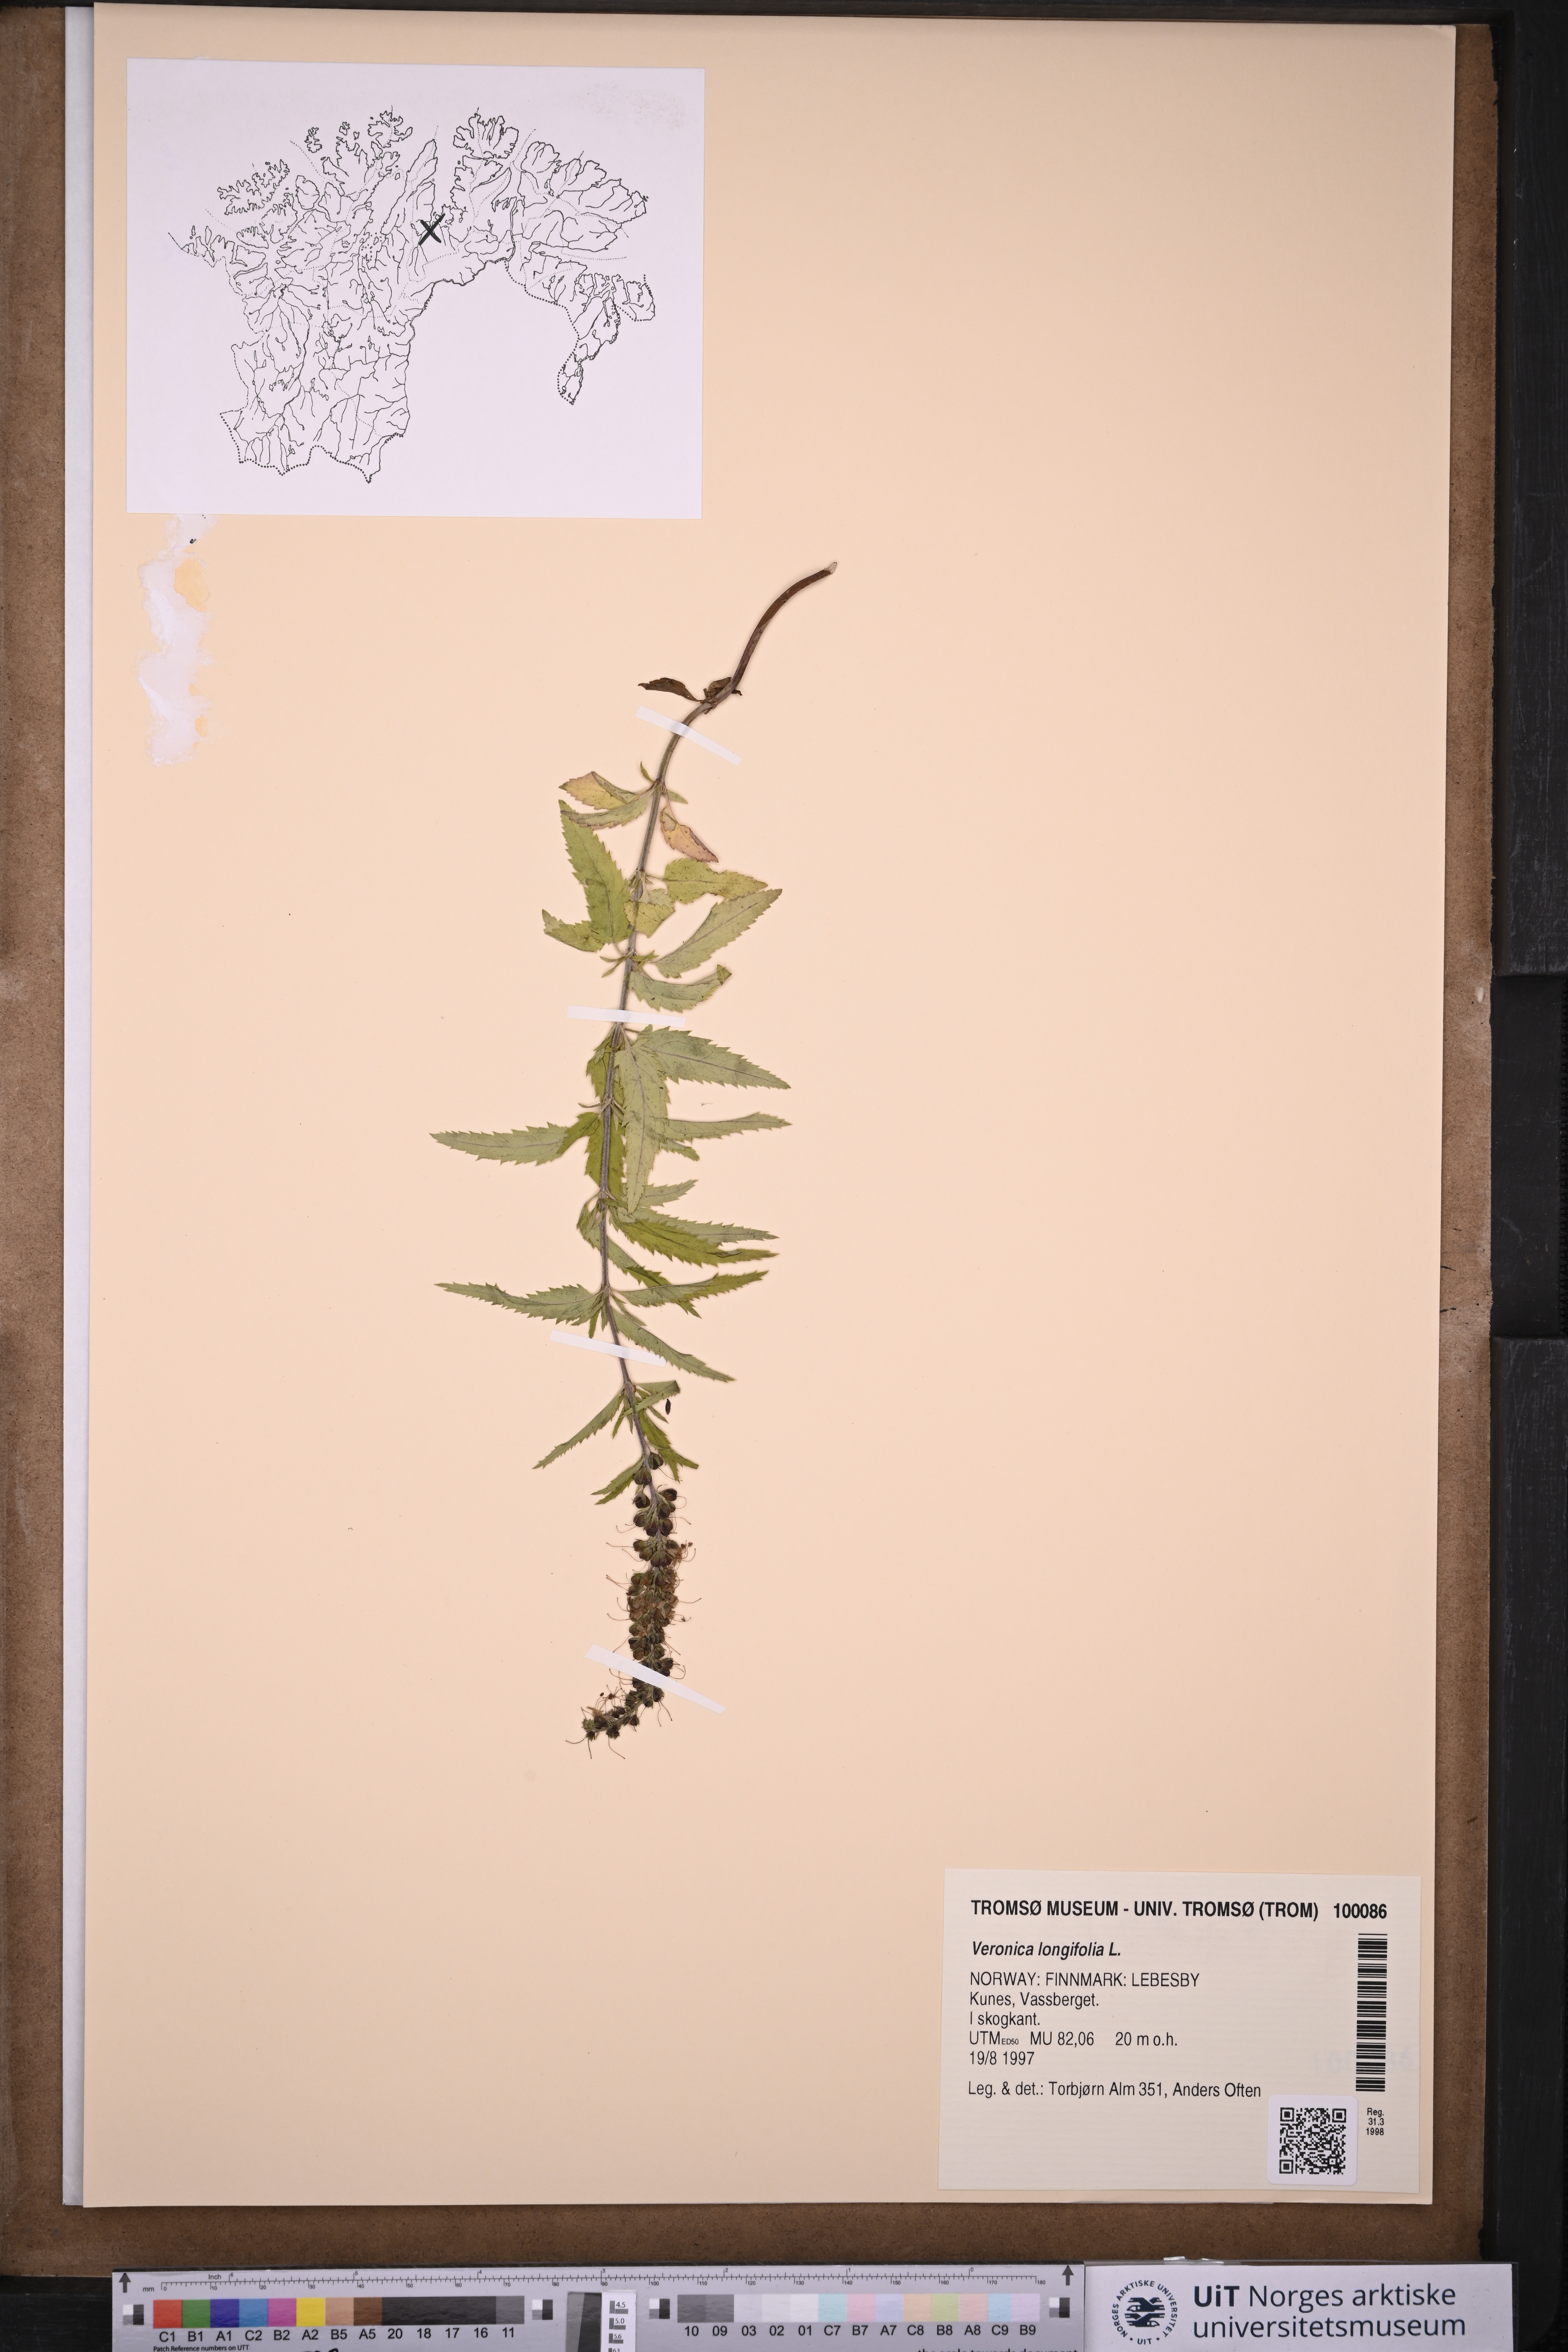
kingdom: Plantae
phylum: Tracheophyta
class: Magnoliopsida
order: Lamiales
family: Plantaginaceae
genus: Veronica
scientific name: Veronica longifolia
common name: Garden speedwell
